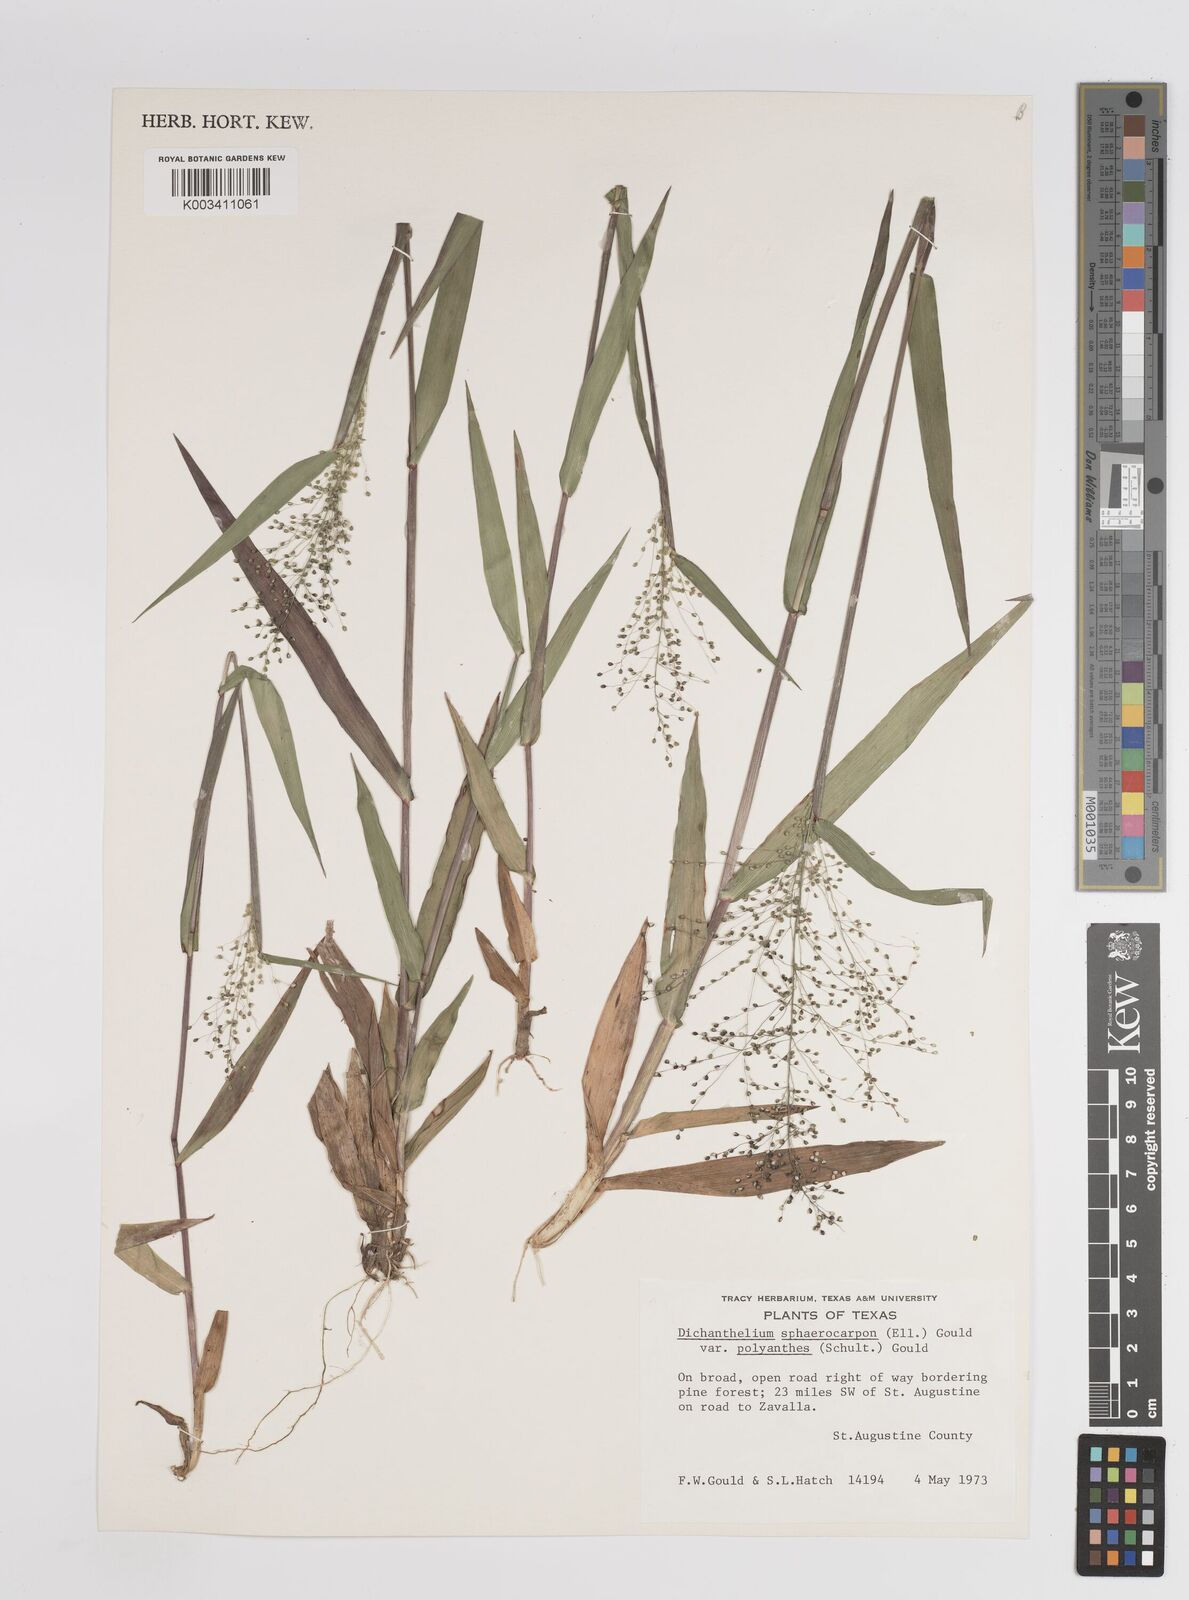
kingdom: Plantae
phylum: Tracheophyta
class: Liliopsida
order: Poales
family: Poaceae
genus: Dichanthelium
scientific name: Dichanthelium polyanthes
